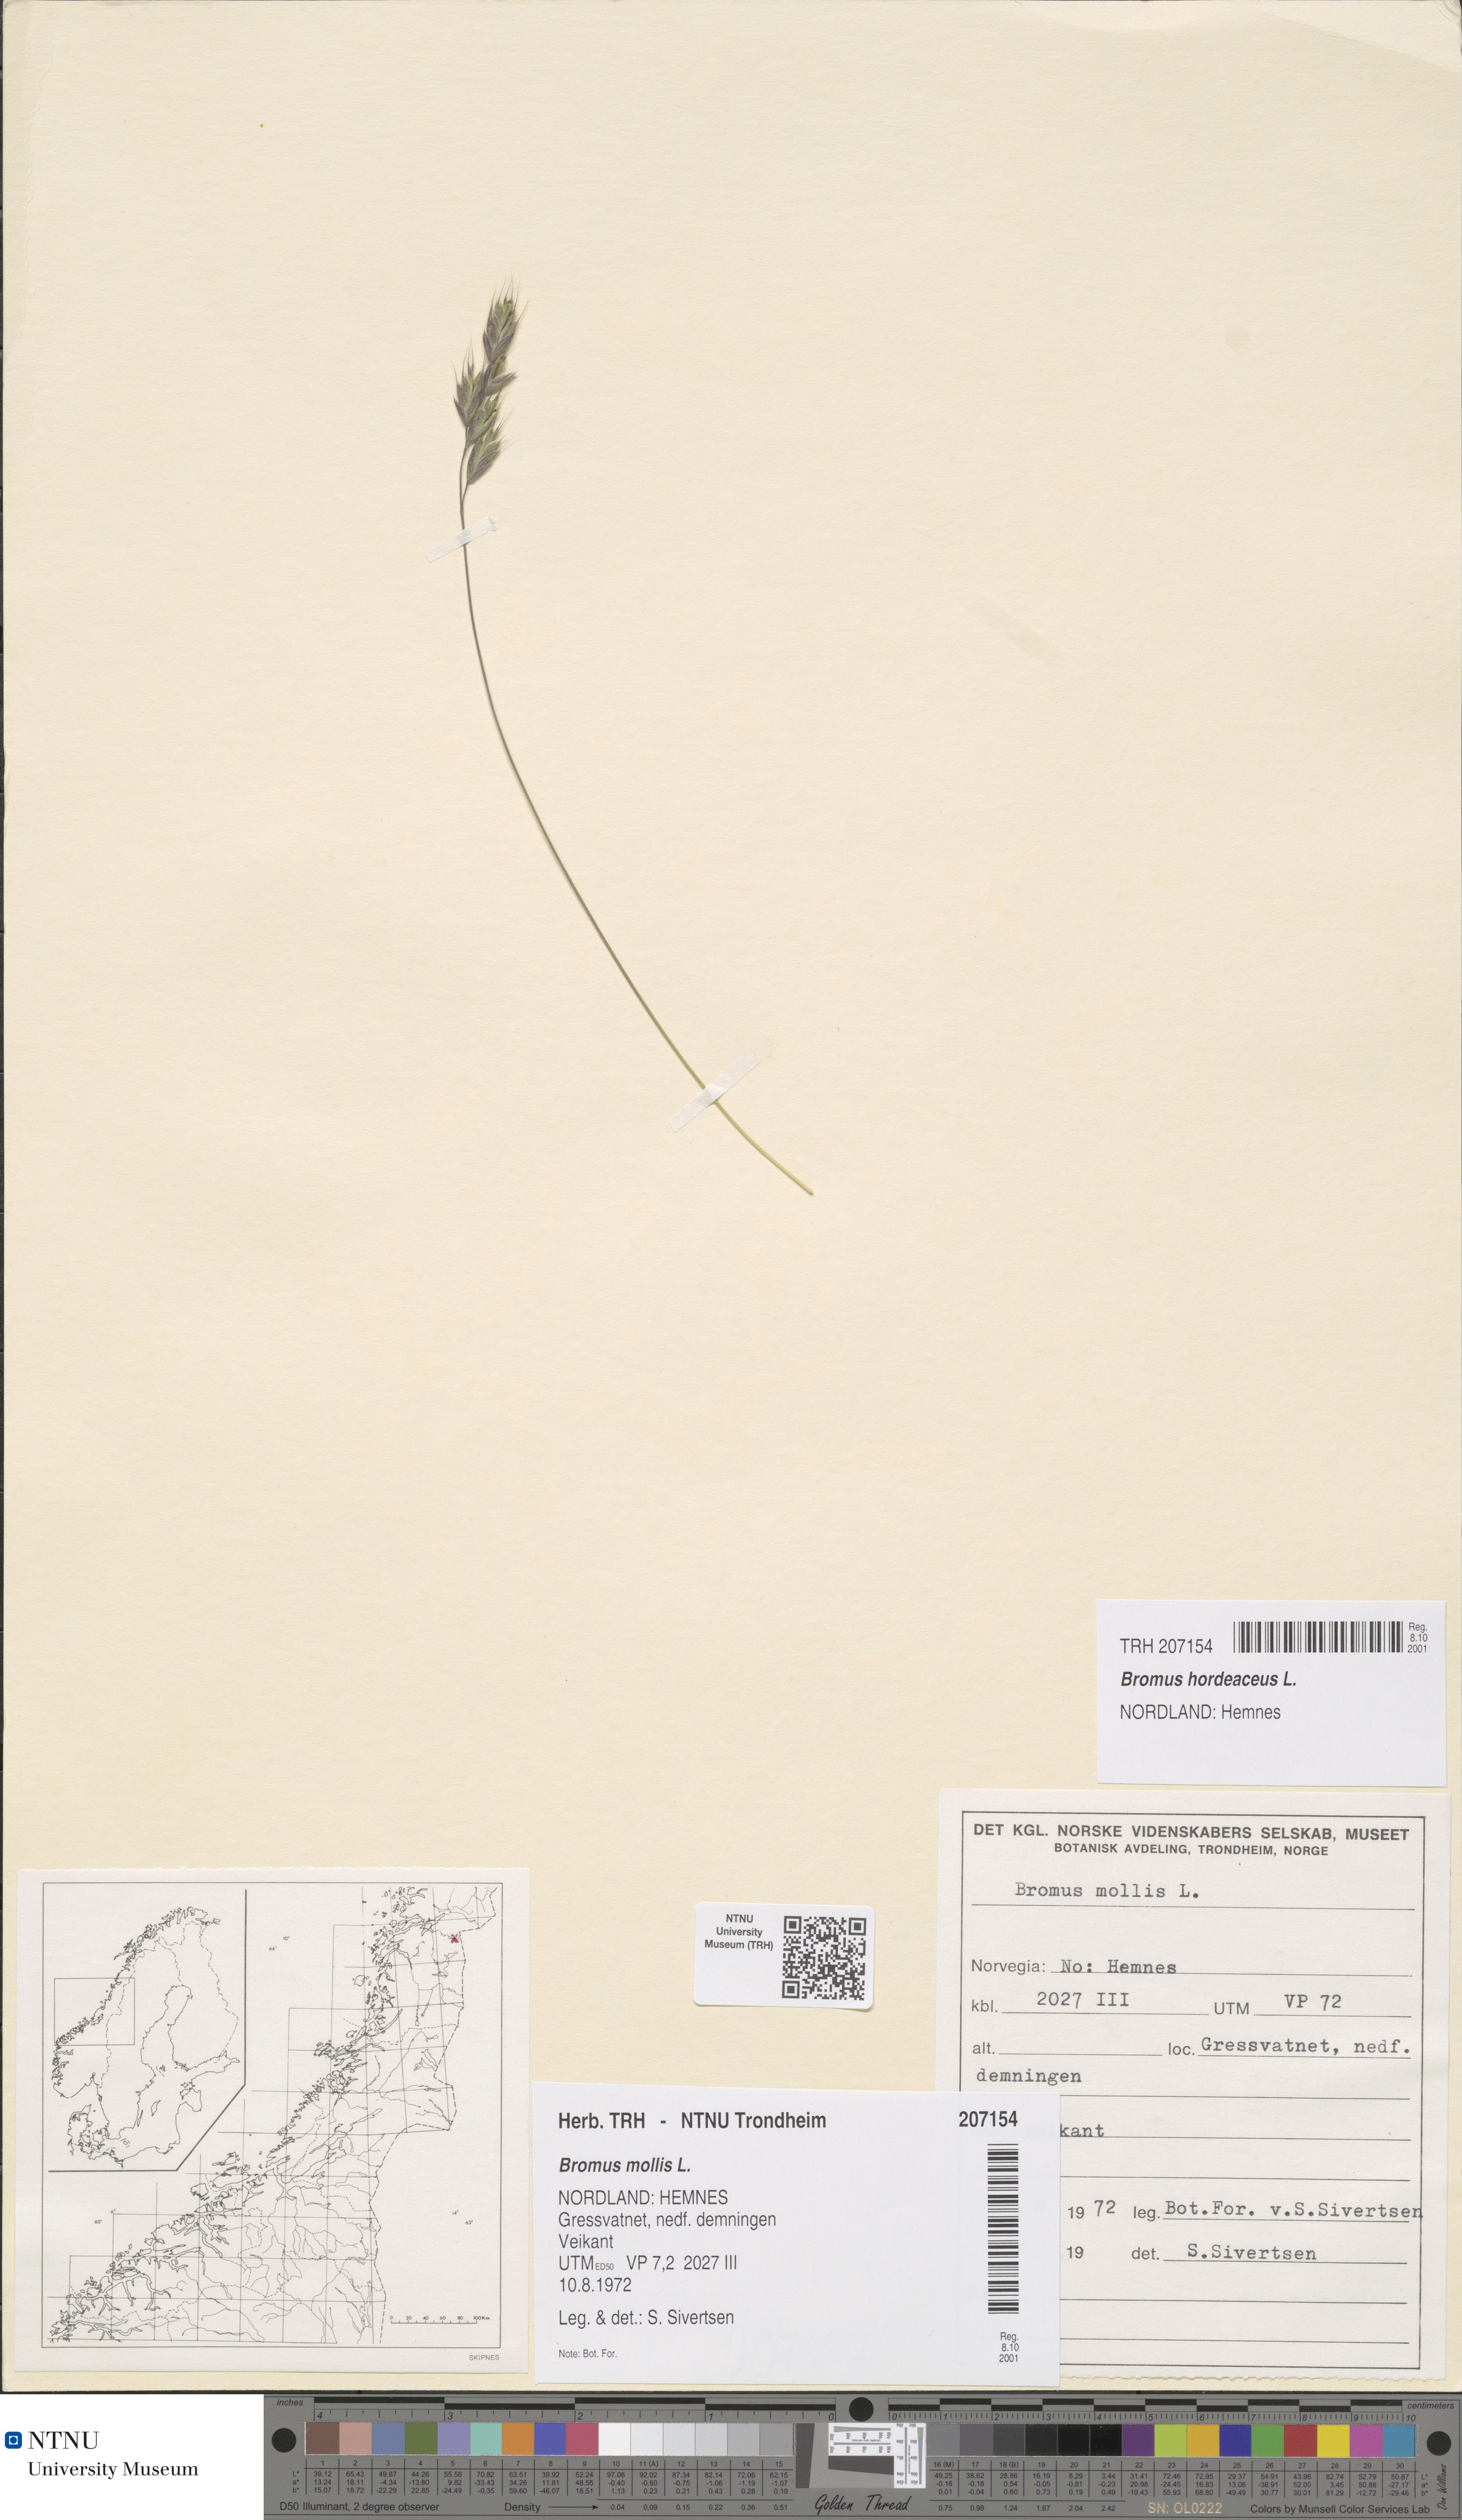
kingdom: Plantae
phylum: Tracheophyta
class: Liliopsida
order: Poales
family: Poaceae
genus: Bromus
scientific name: Bromus hordeaceus
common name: Soft brome
